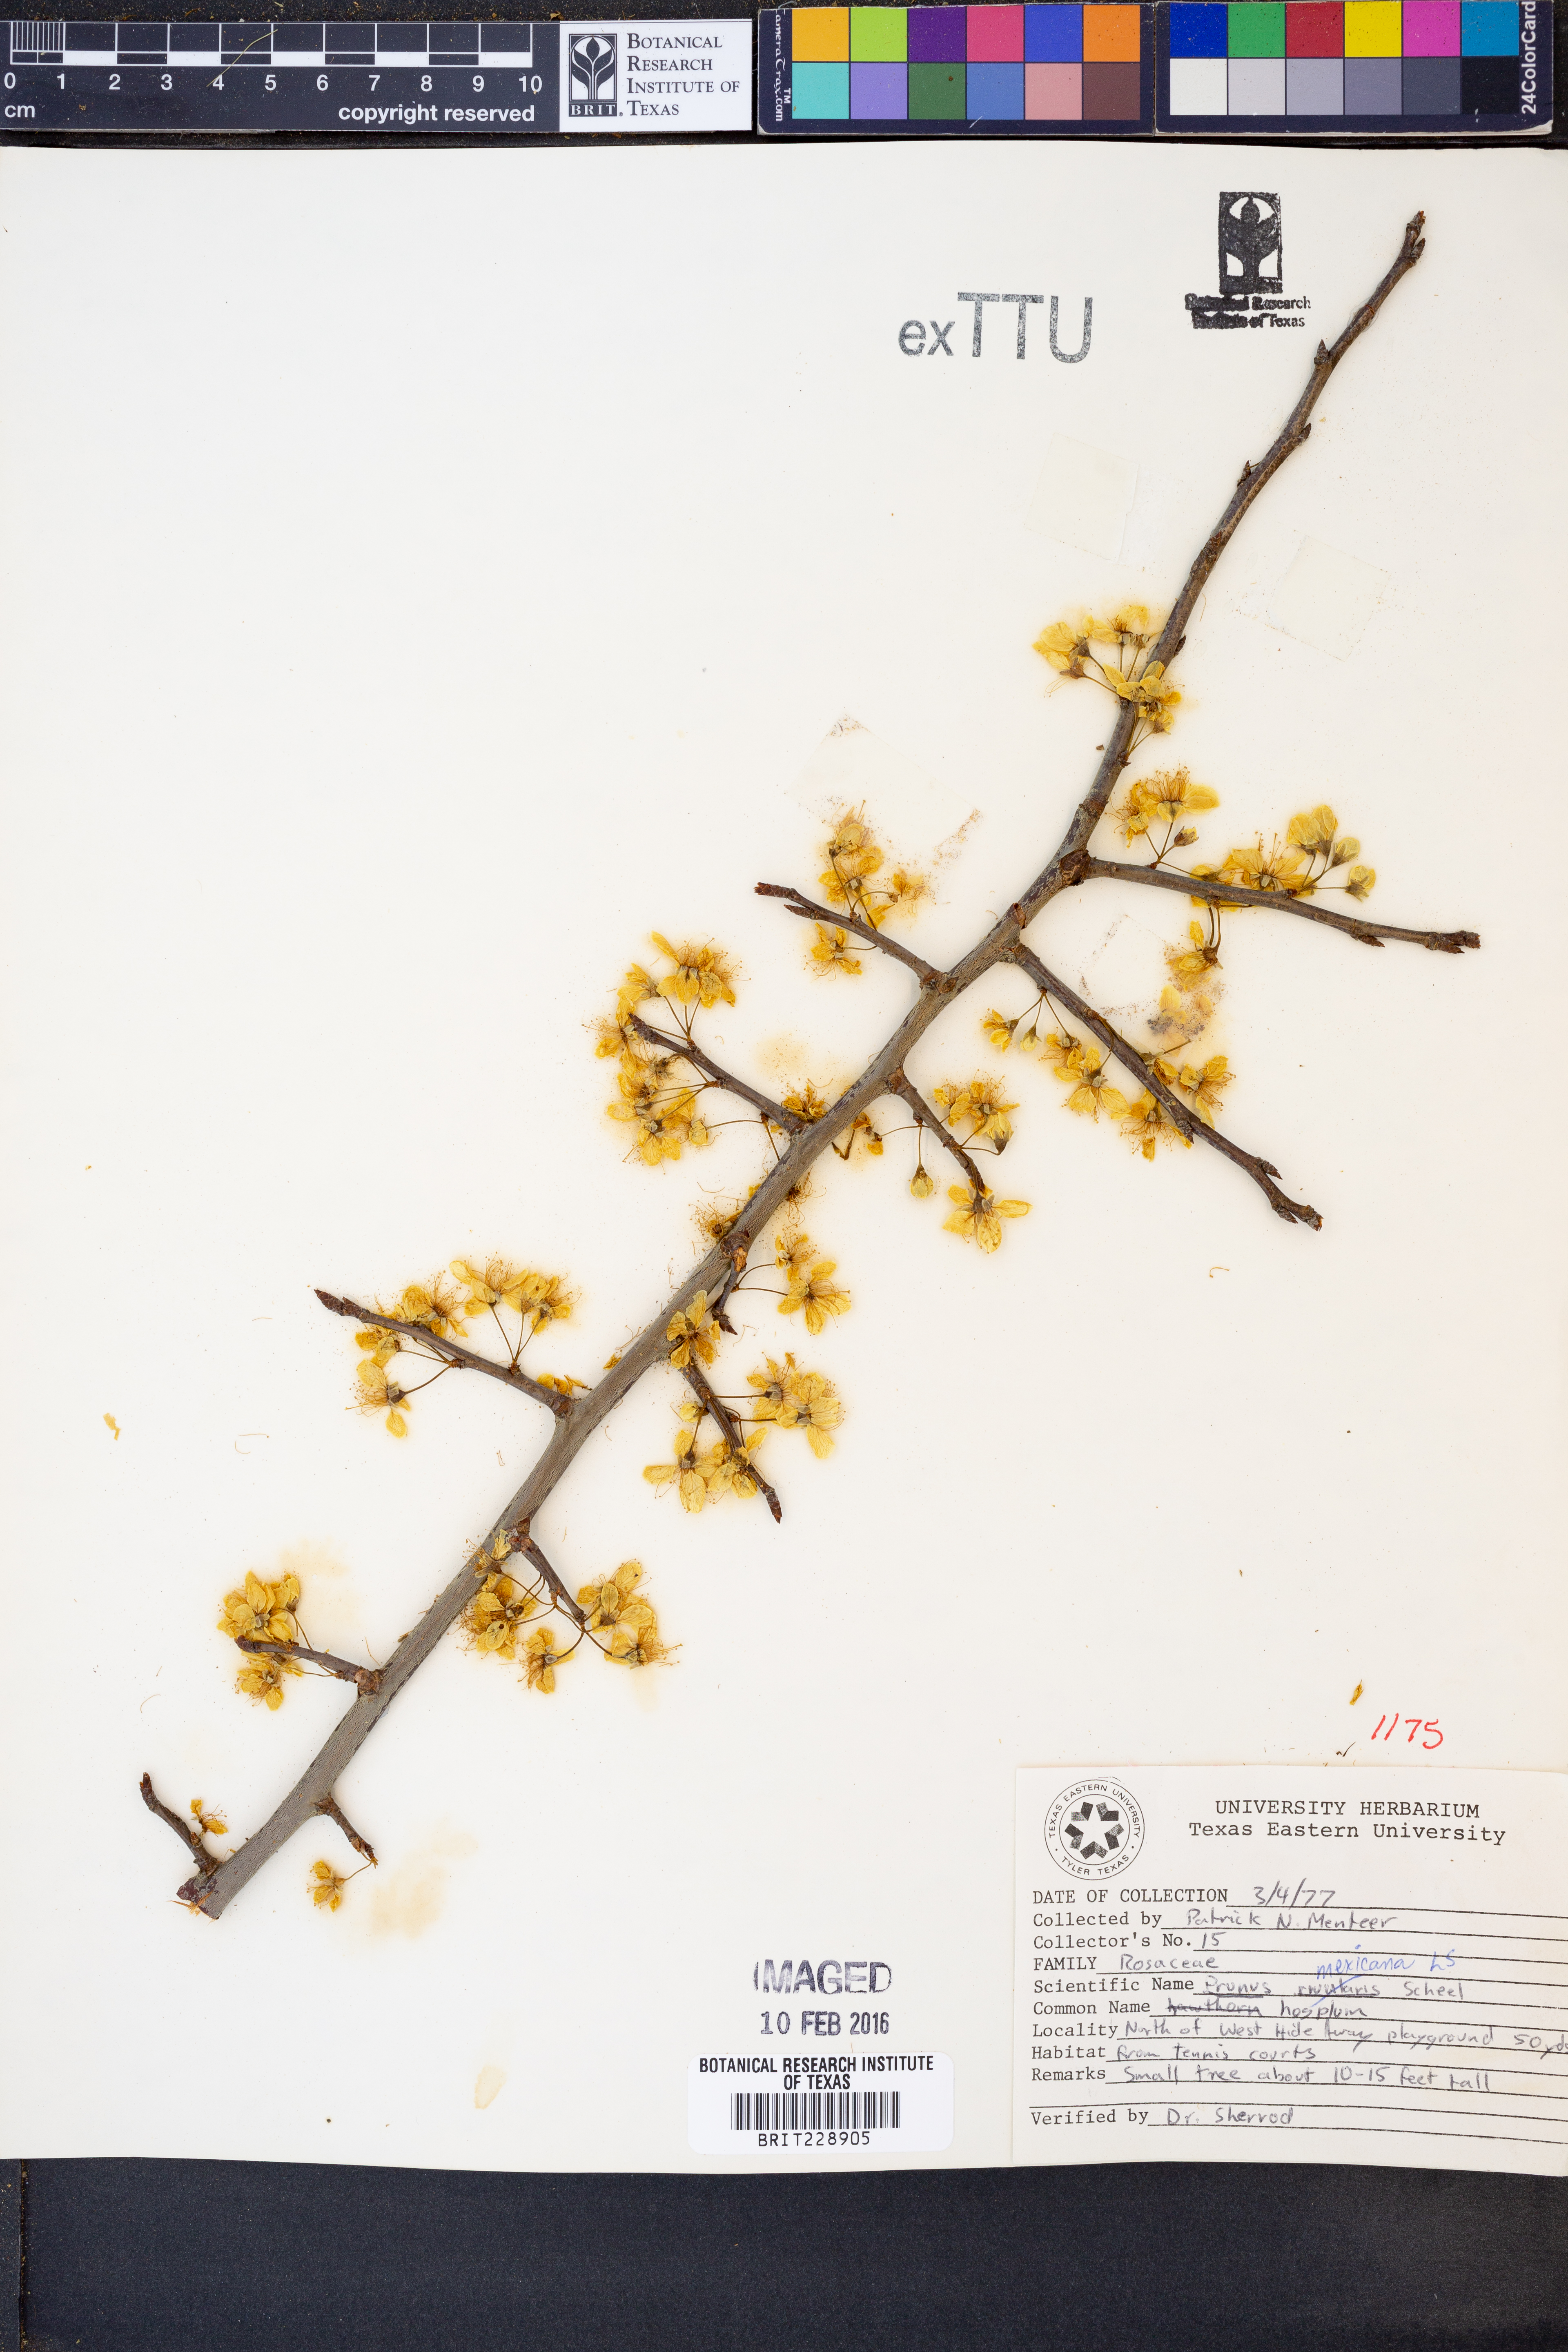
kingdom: Plantae
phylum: Tracheophyta
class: Magnoliopsida
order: Rosales
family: Rosaceae
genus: Prunus
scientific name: Prunus mexicana
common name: Mexican plum
